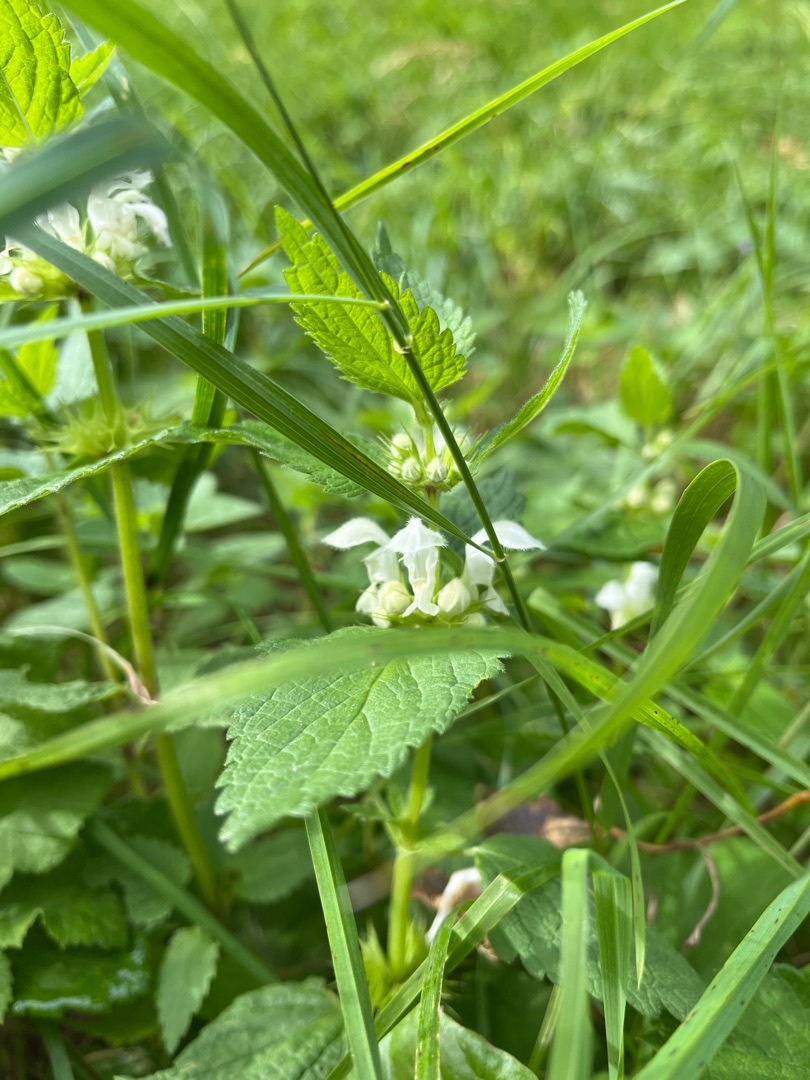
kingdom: Plantae
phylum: Tracheophyta
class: Magnoliopsida
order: Lamiales
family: Lamiaceae
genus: Lamium
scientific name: Lamium album
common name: Døvnælde
